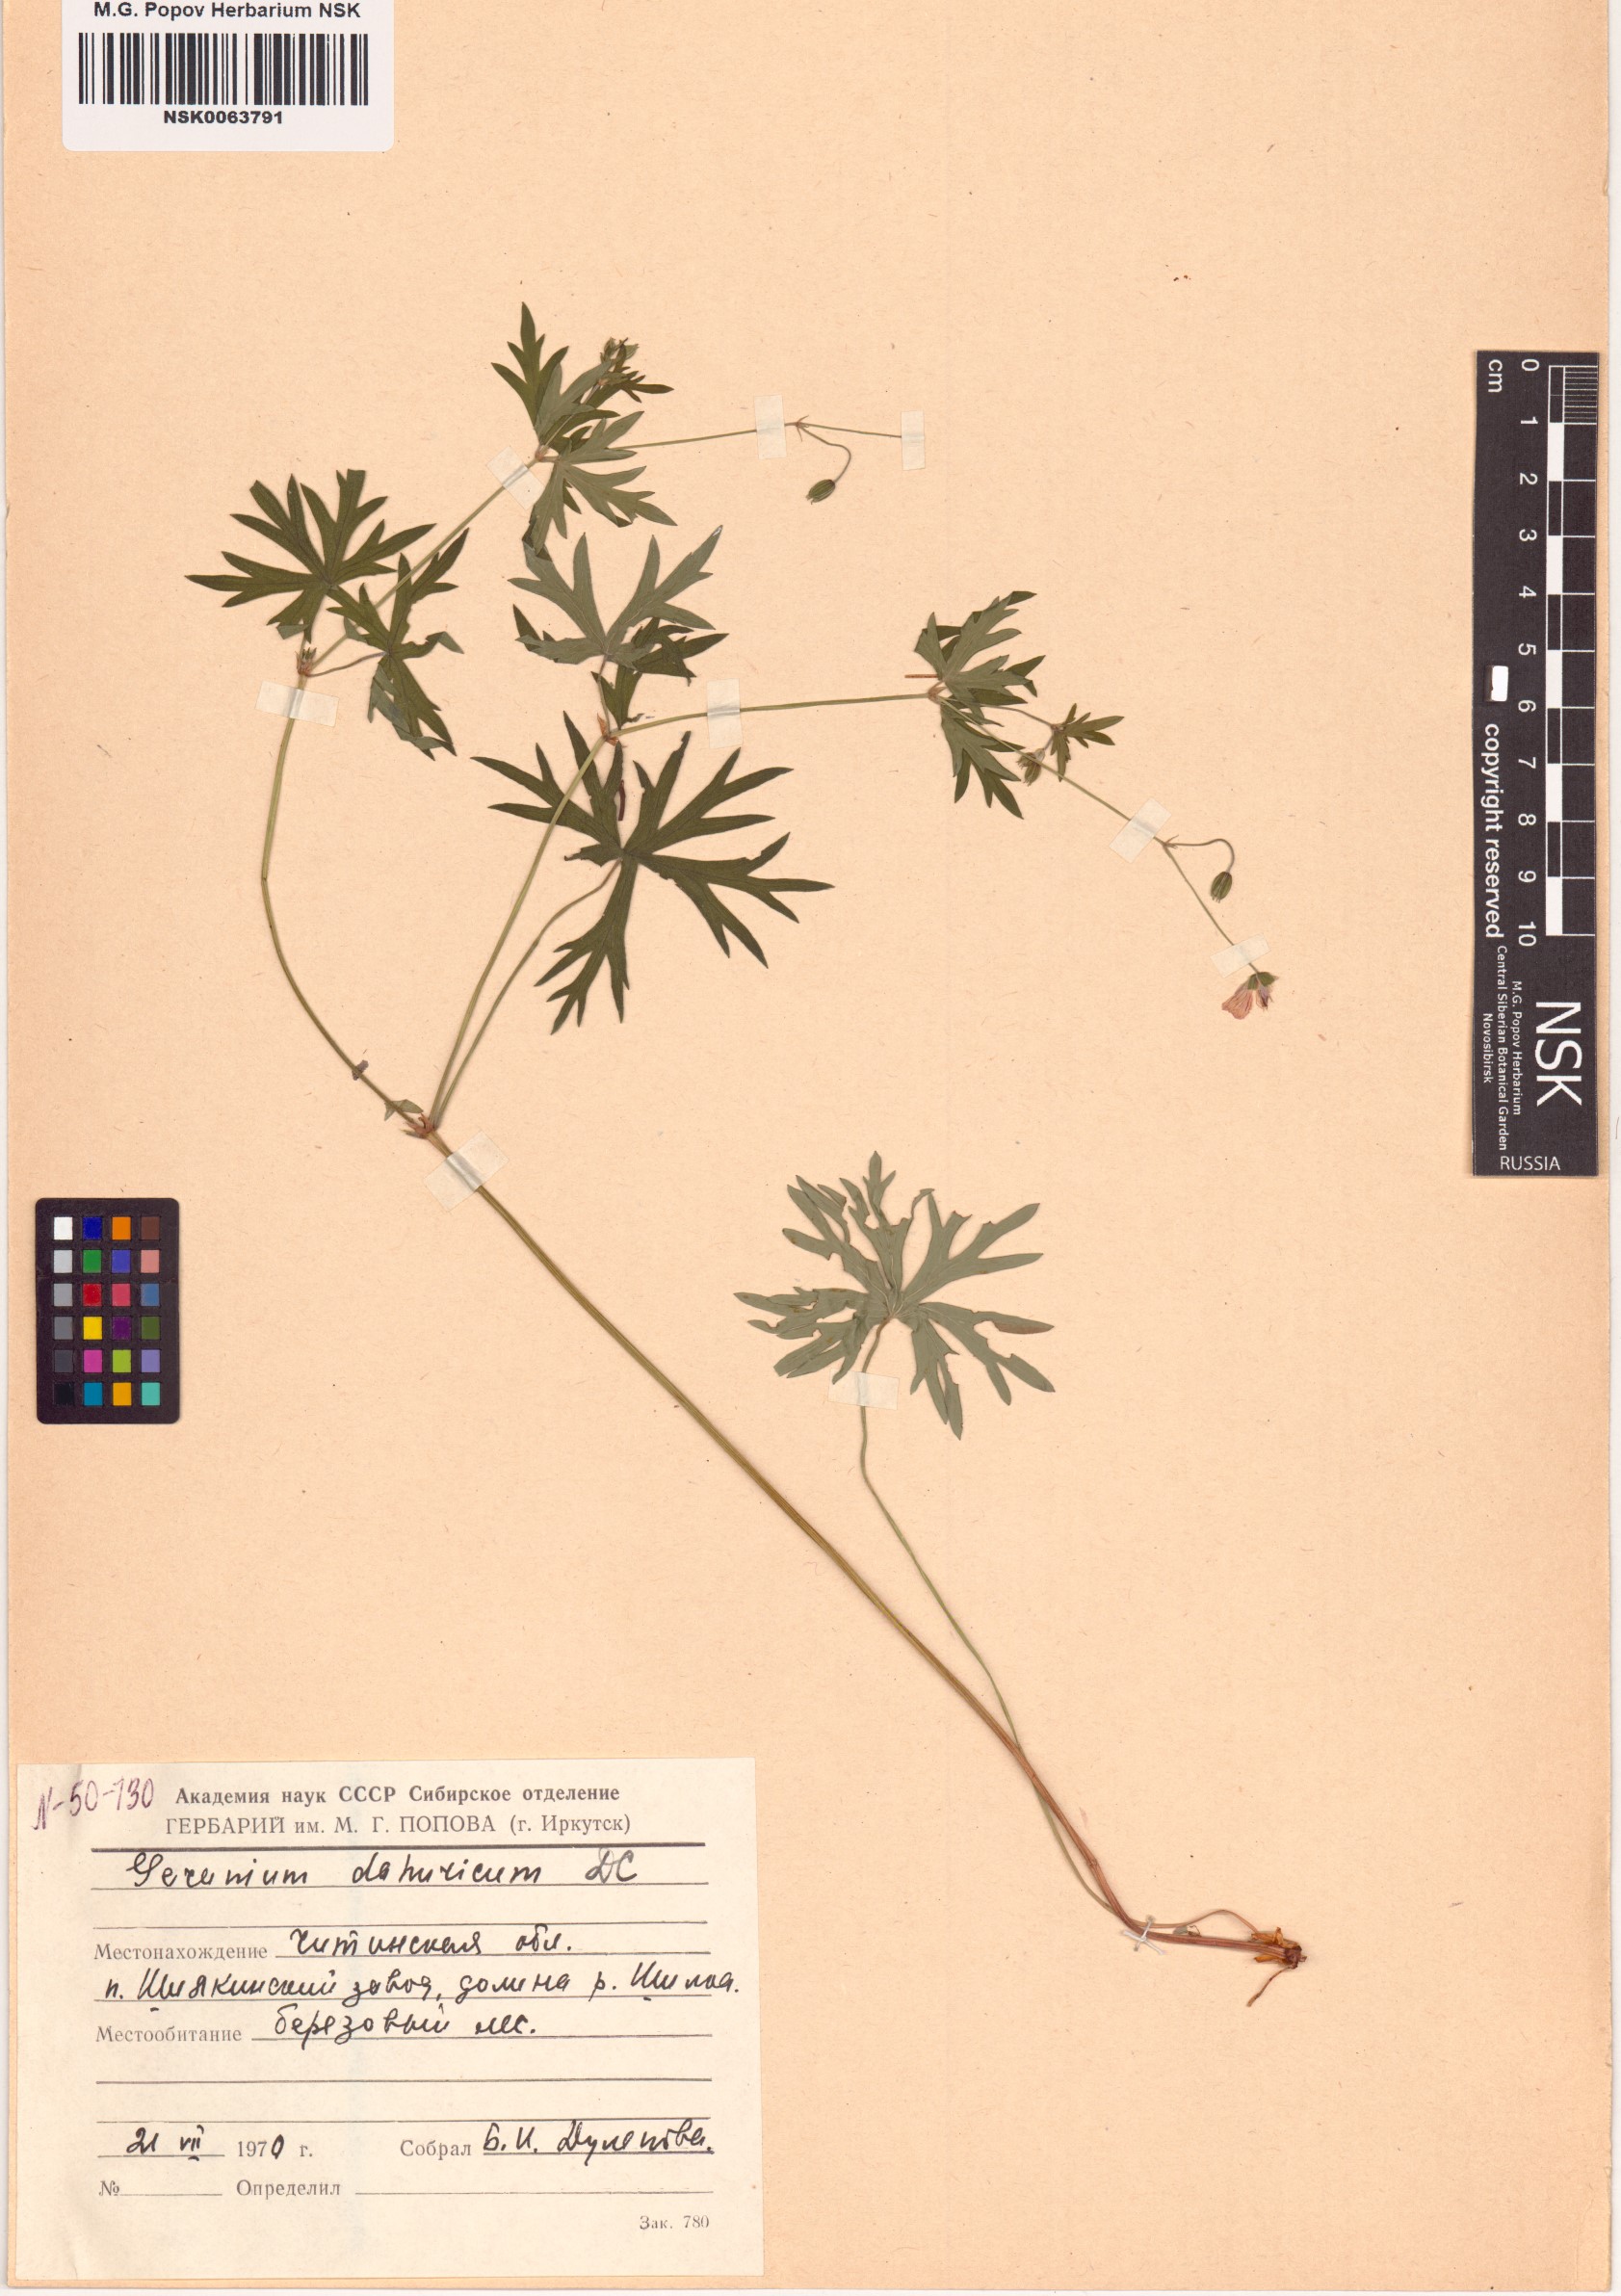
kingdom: Plantae
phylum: Tracheophyta
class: Magnoliopsida
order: Geraniales
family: Geraniaceae
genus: Geranium
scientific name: Geranium dahuricum
